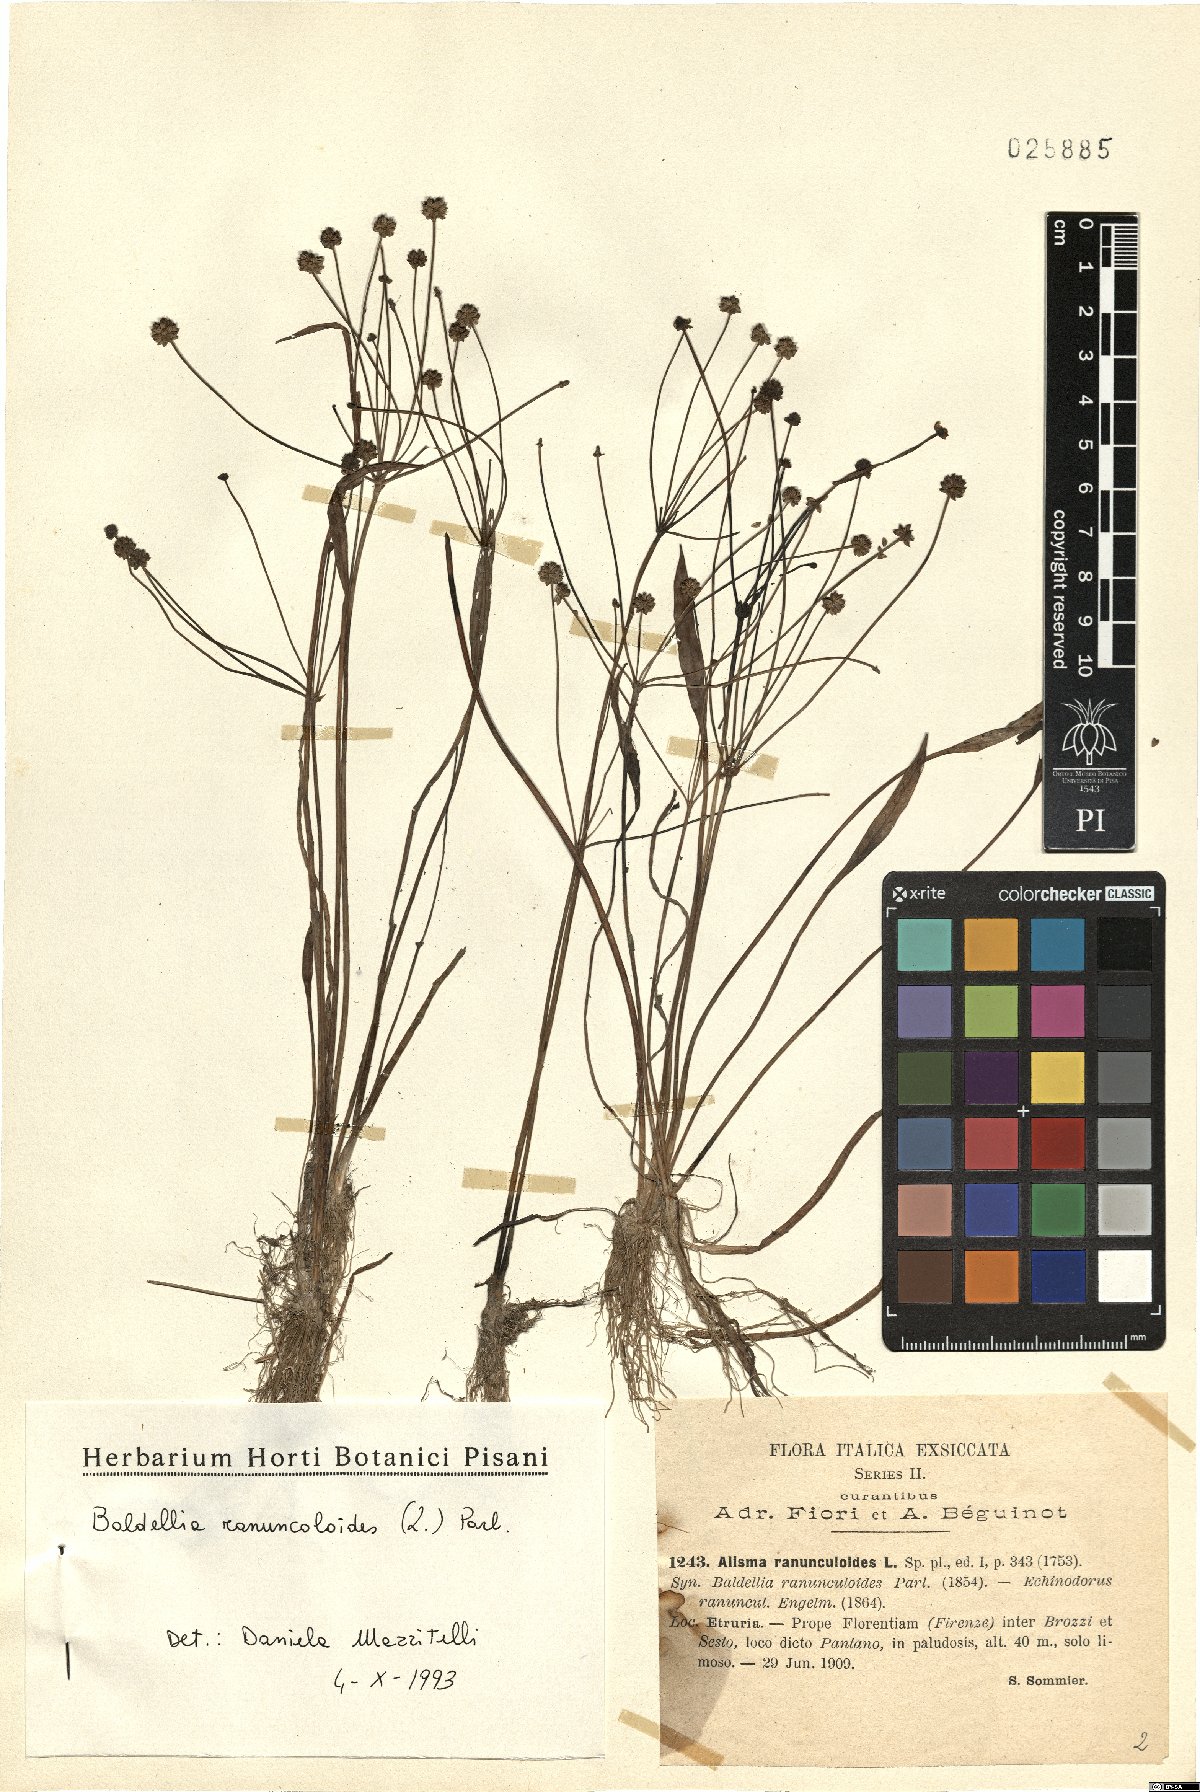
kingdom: Plantae
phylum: Tracheophyta
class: Liliopsida
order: Alismatales
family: Alismataceae
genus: Baldellia
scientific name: Baldellia ranunculoides
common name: Lesser water-plantain
